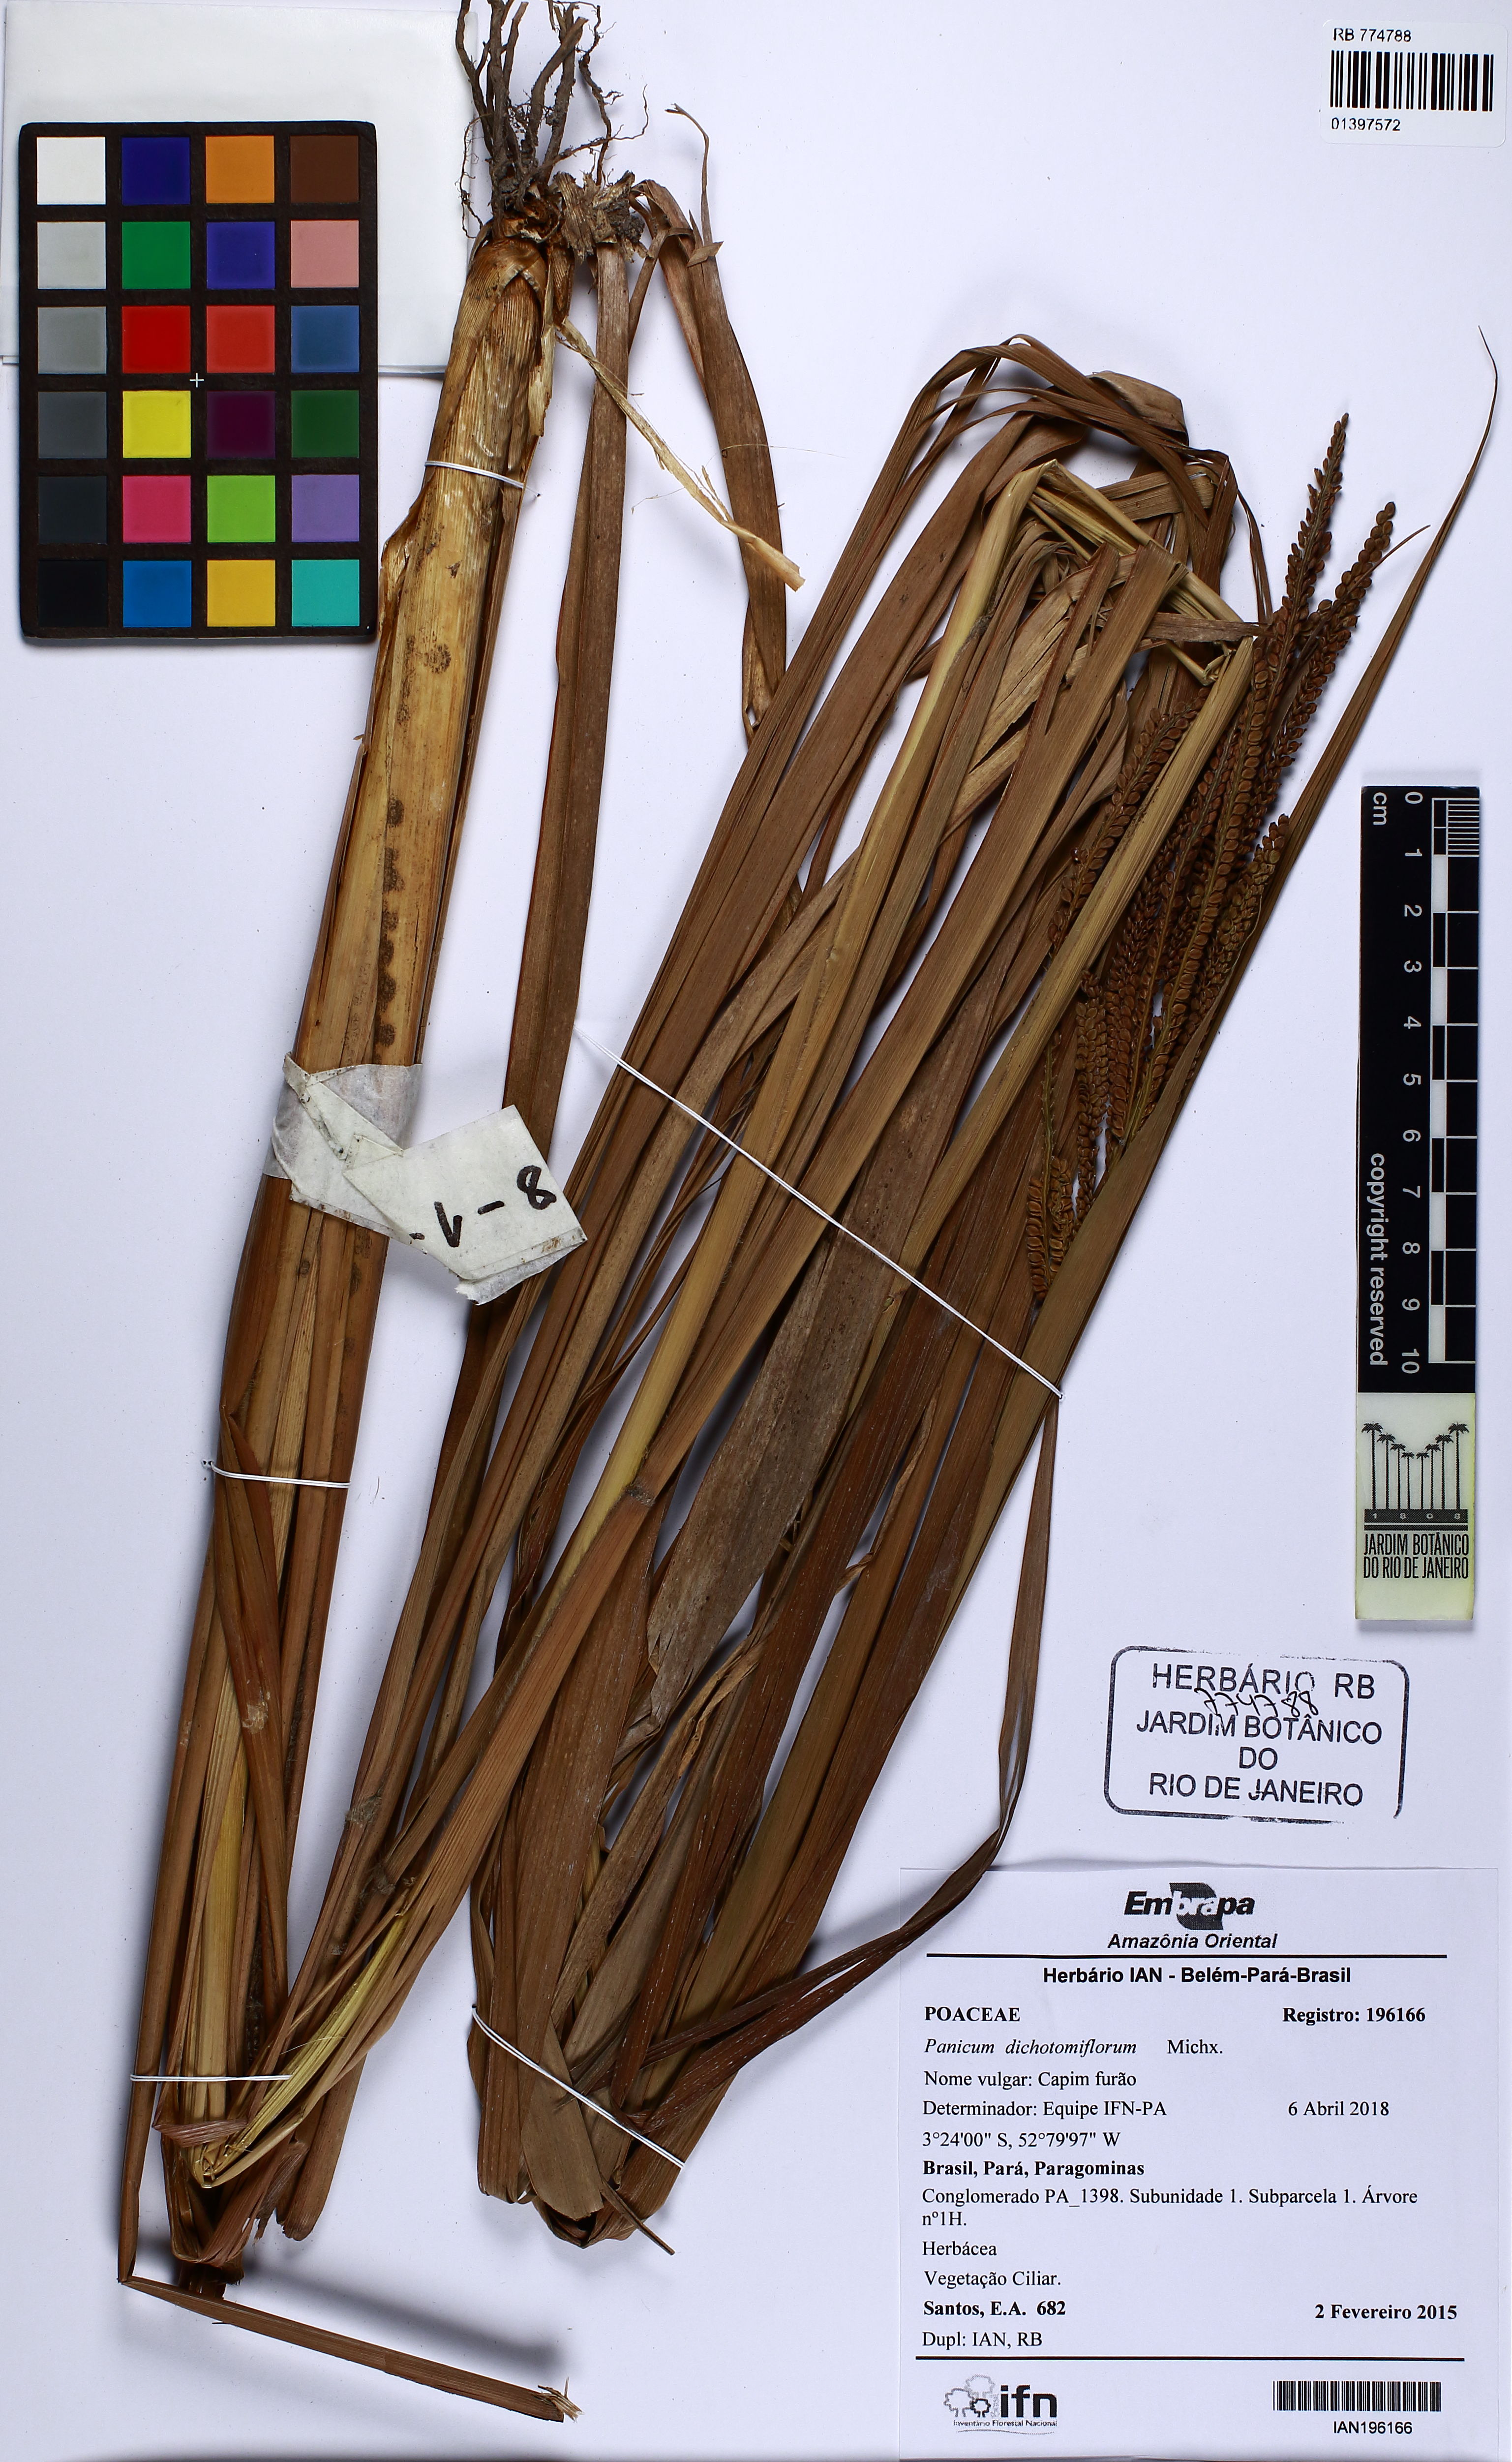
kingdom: Plantae
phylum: Tracheophyta
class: Liliopsida
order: Poales
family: Poaceae
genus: Panicum
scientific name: Panicum dichotomiflorum
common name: Autumn millet
